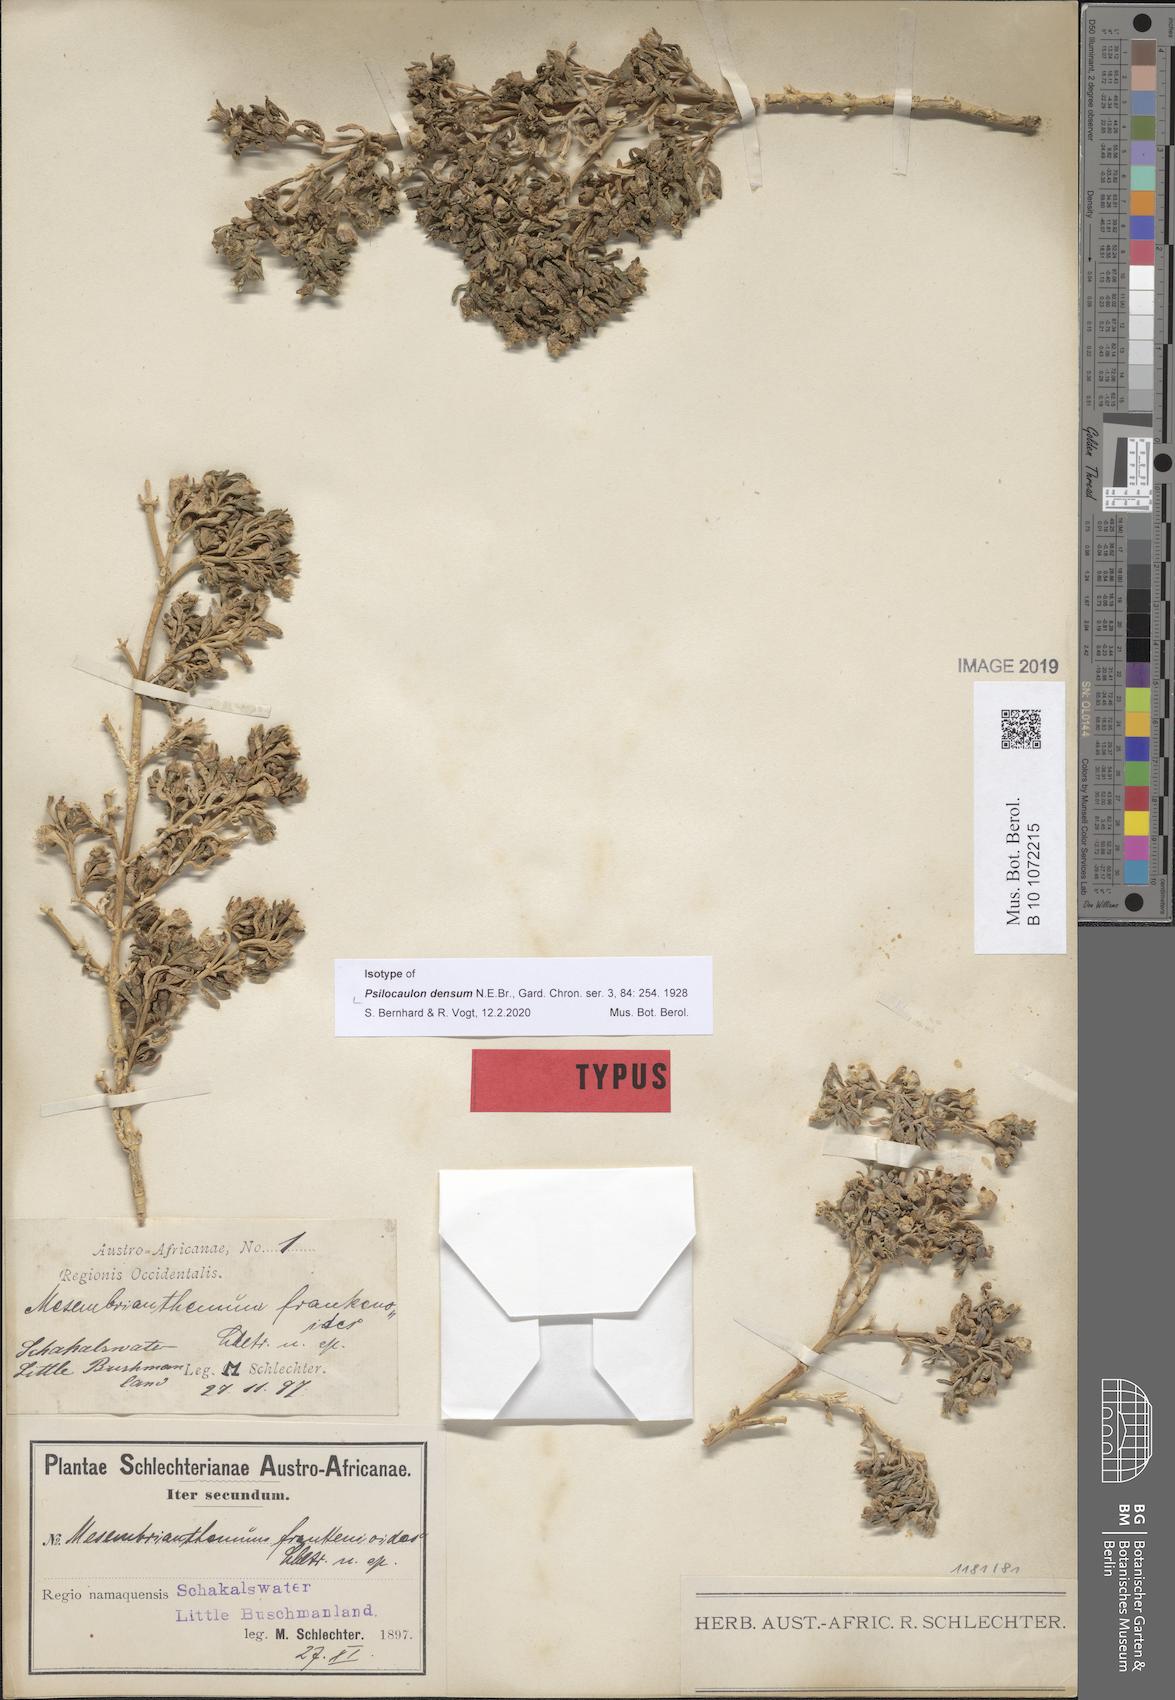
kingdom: Plantae
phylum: Tracheophyta
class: Magnoliopsida
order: Caryophyllales
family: Aizoaceae
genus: Mesembryanthemum
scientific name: Mesembryanthemum densum
